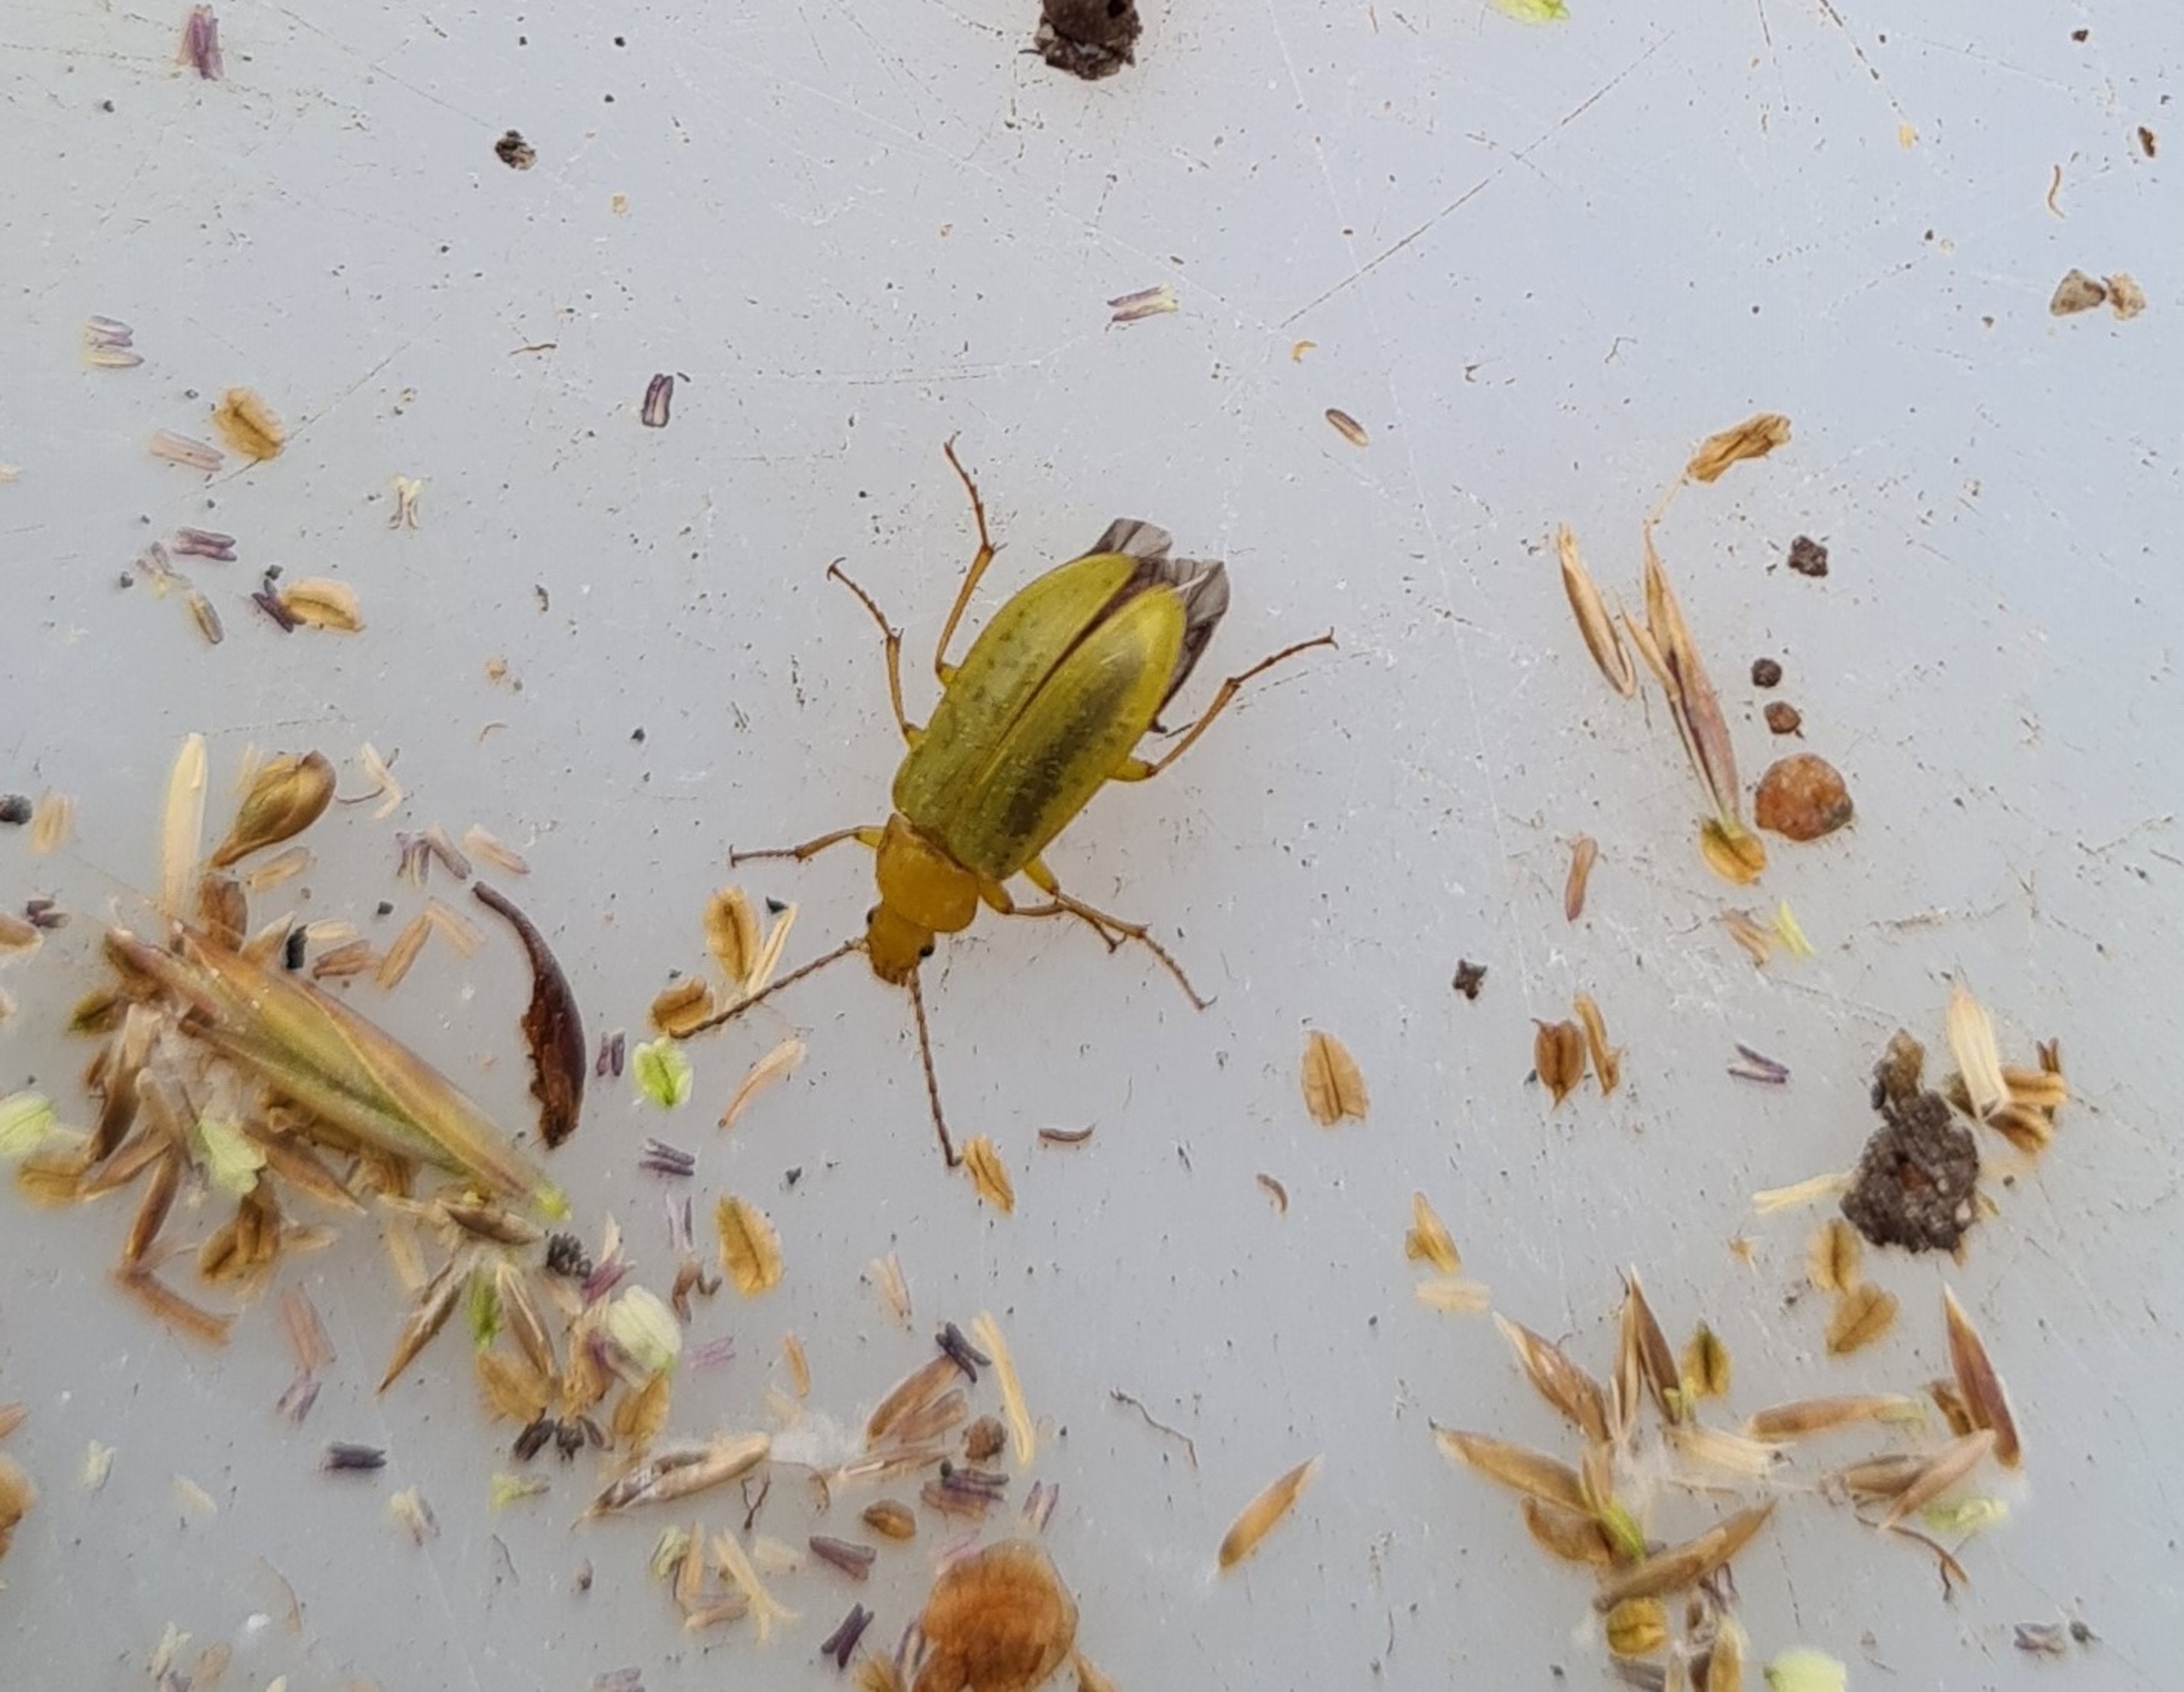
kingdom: Animalia
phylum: Arthropoda
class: Insecta
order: Coleoptera
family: Tenebrionidae
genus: Cteniopus
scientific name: Cteniopus sulphureus
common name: Svovlgul skyggebille
